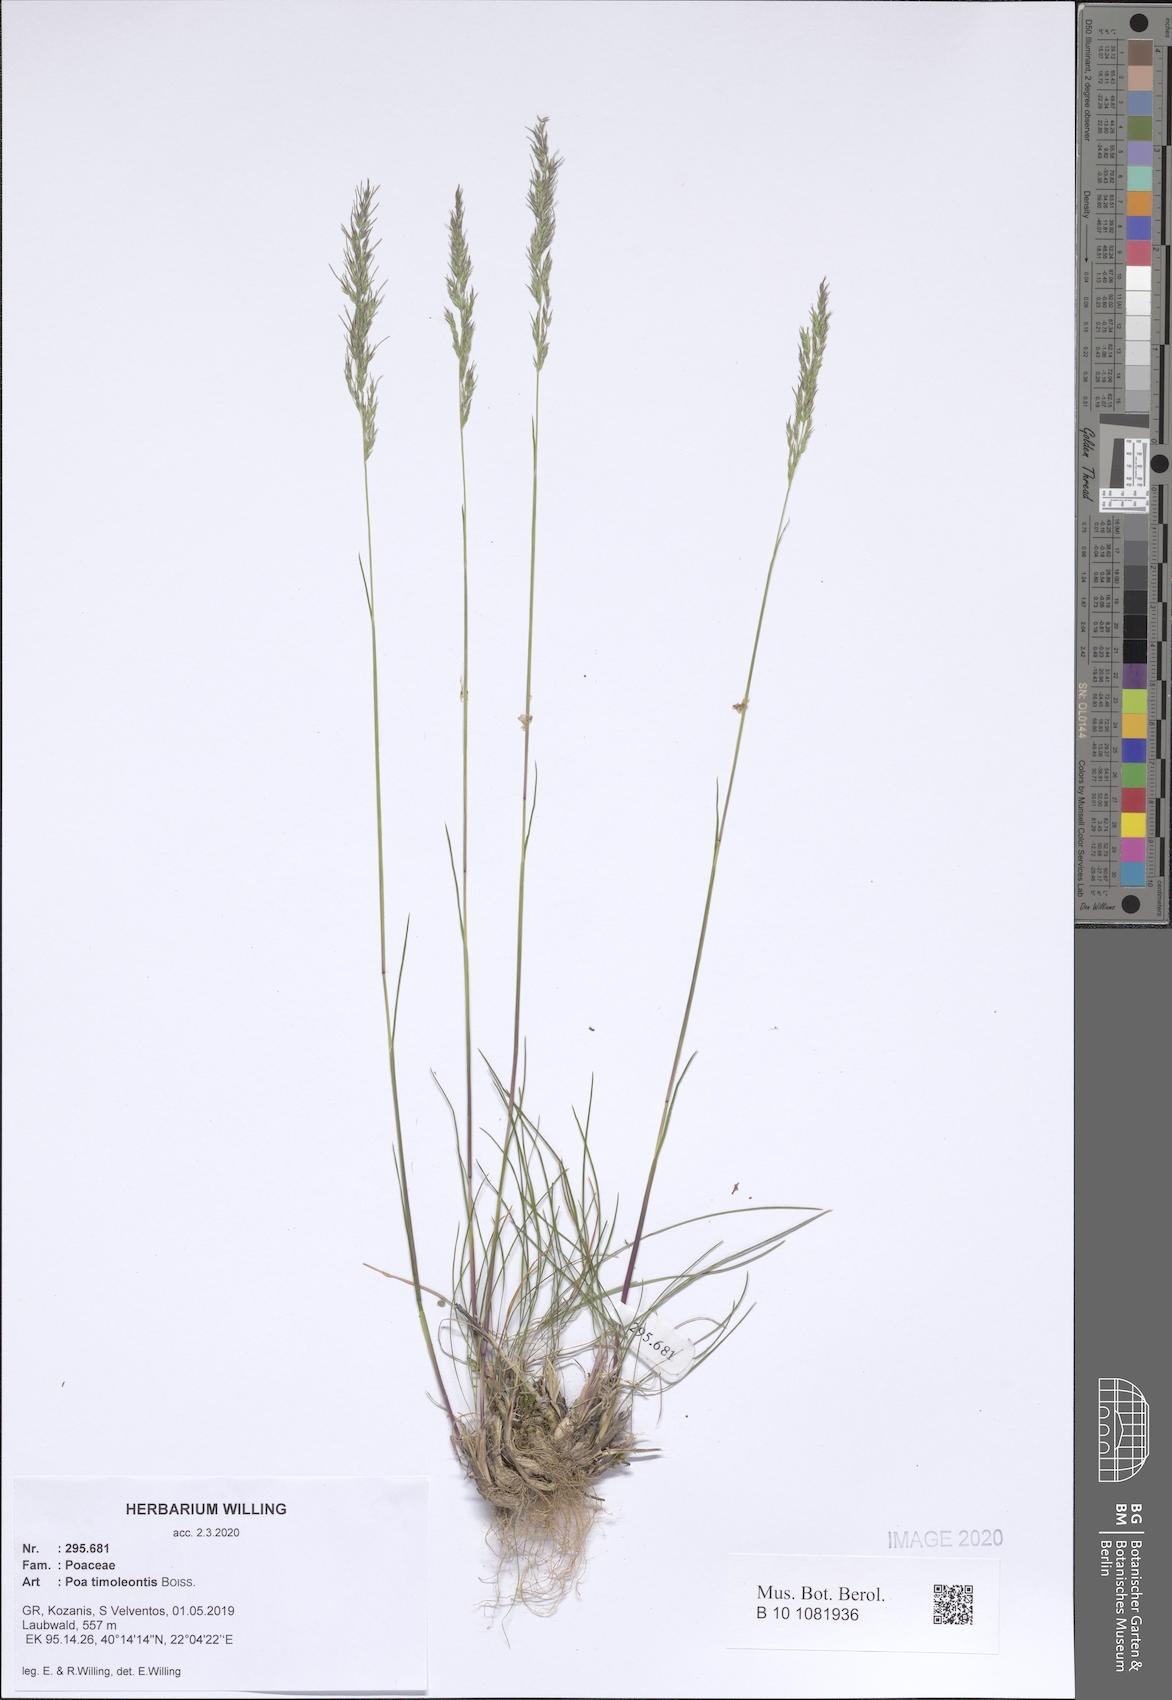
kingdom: Plantae
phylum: Tracheophyta
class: Liliopsida
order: Poales
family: Poaceae
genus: Poa
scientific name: Poa timoleontis
